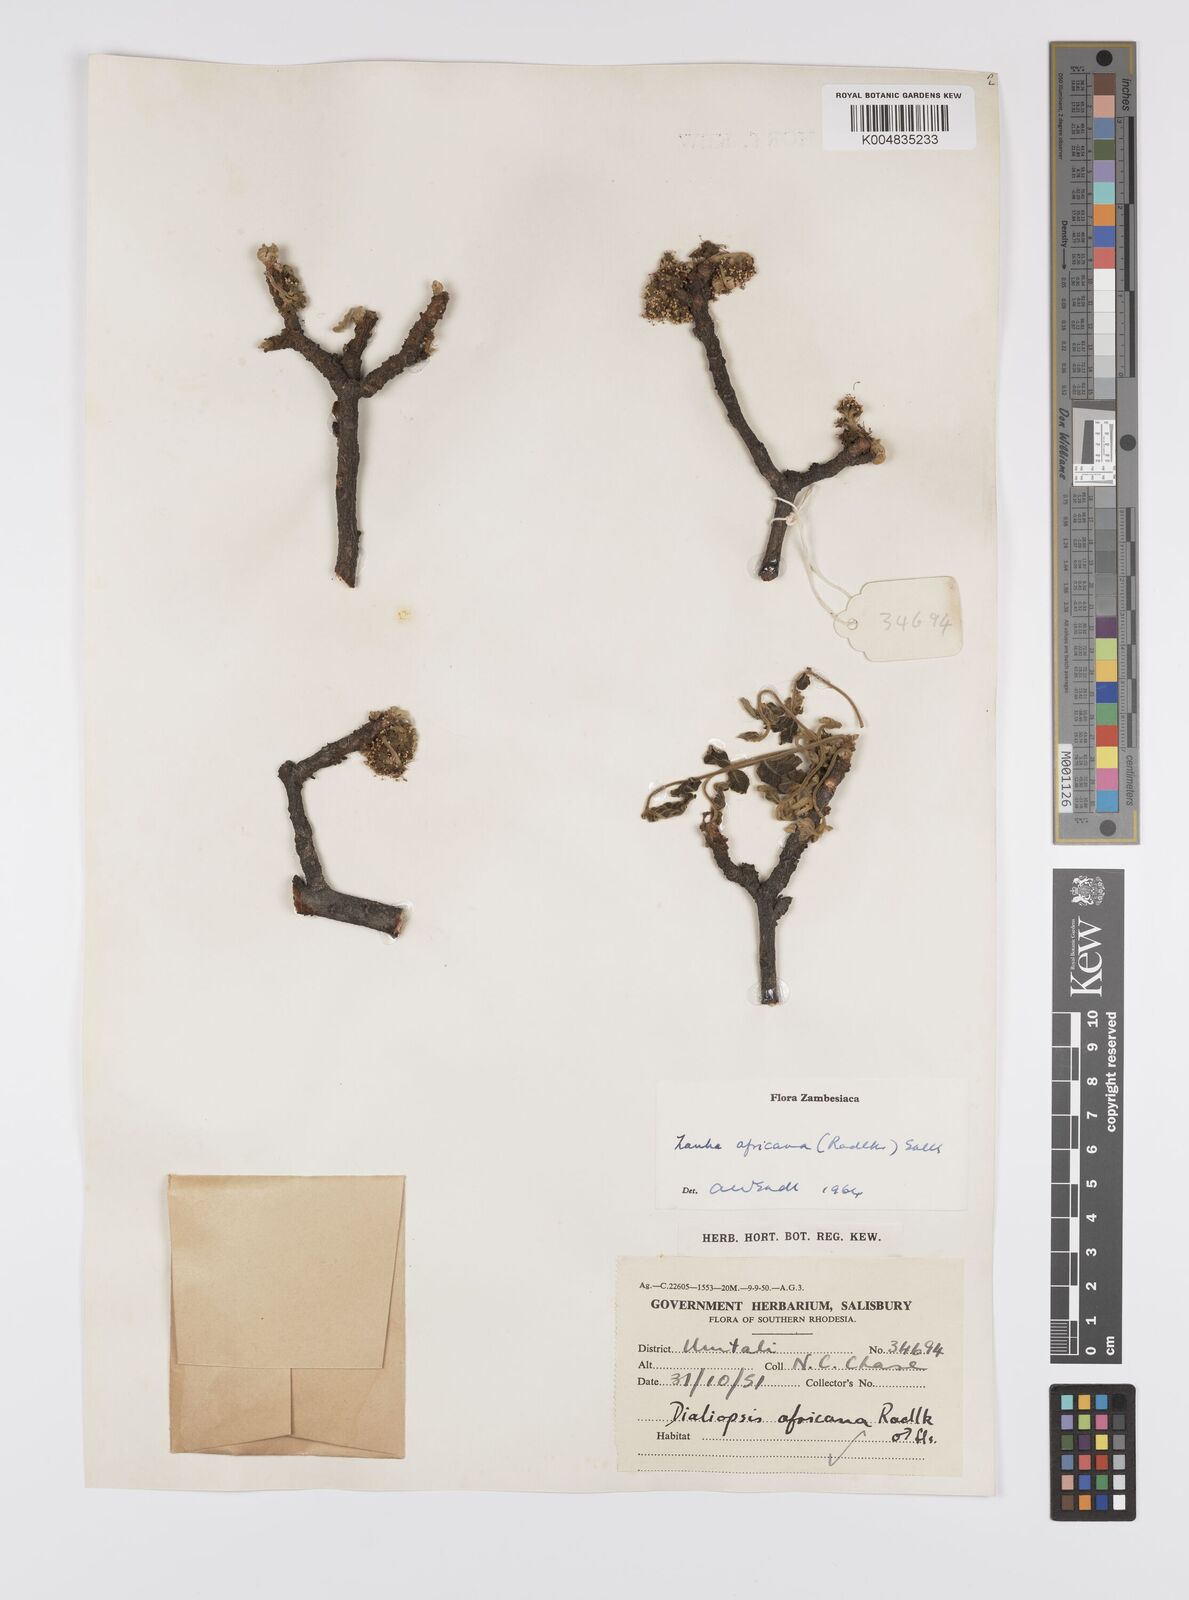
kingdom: Plantae
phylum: Tracheophyta
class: Magnoliopsida
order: Sapindales
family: Sapindaceae
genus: Zanha
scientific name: Zanha africana
